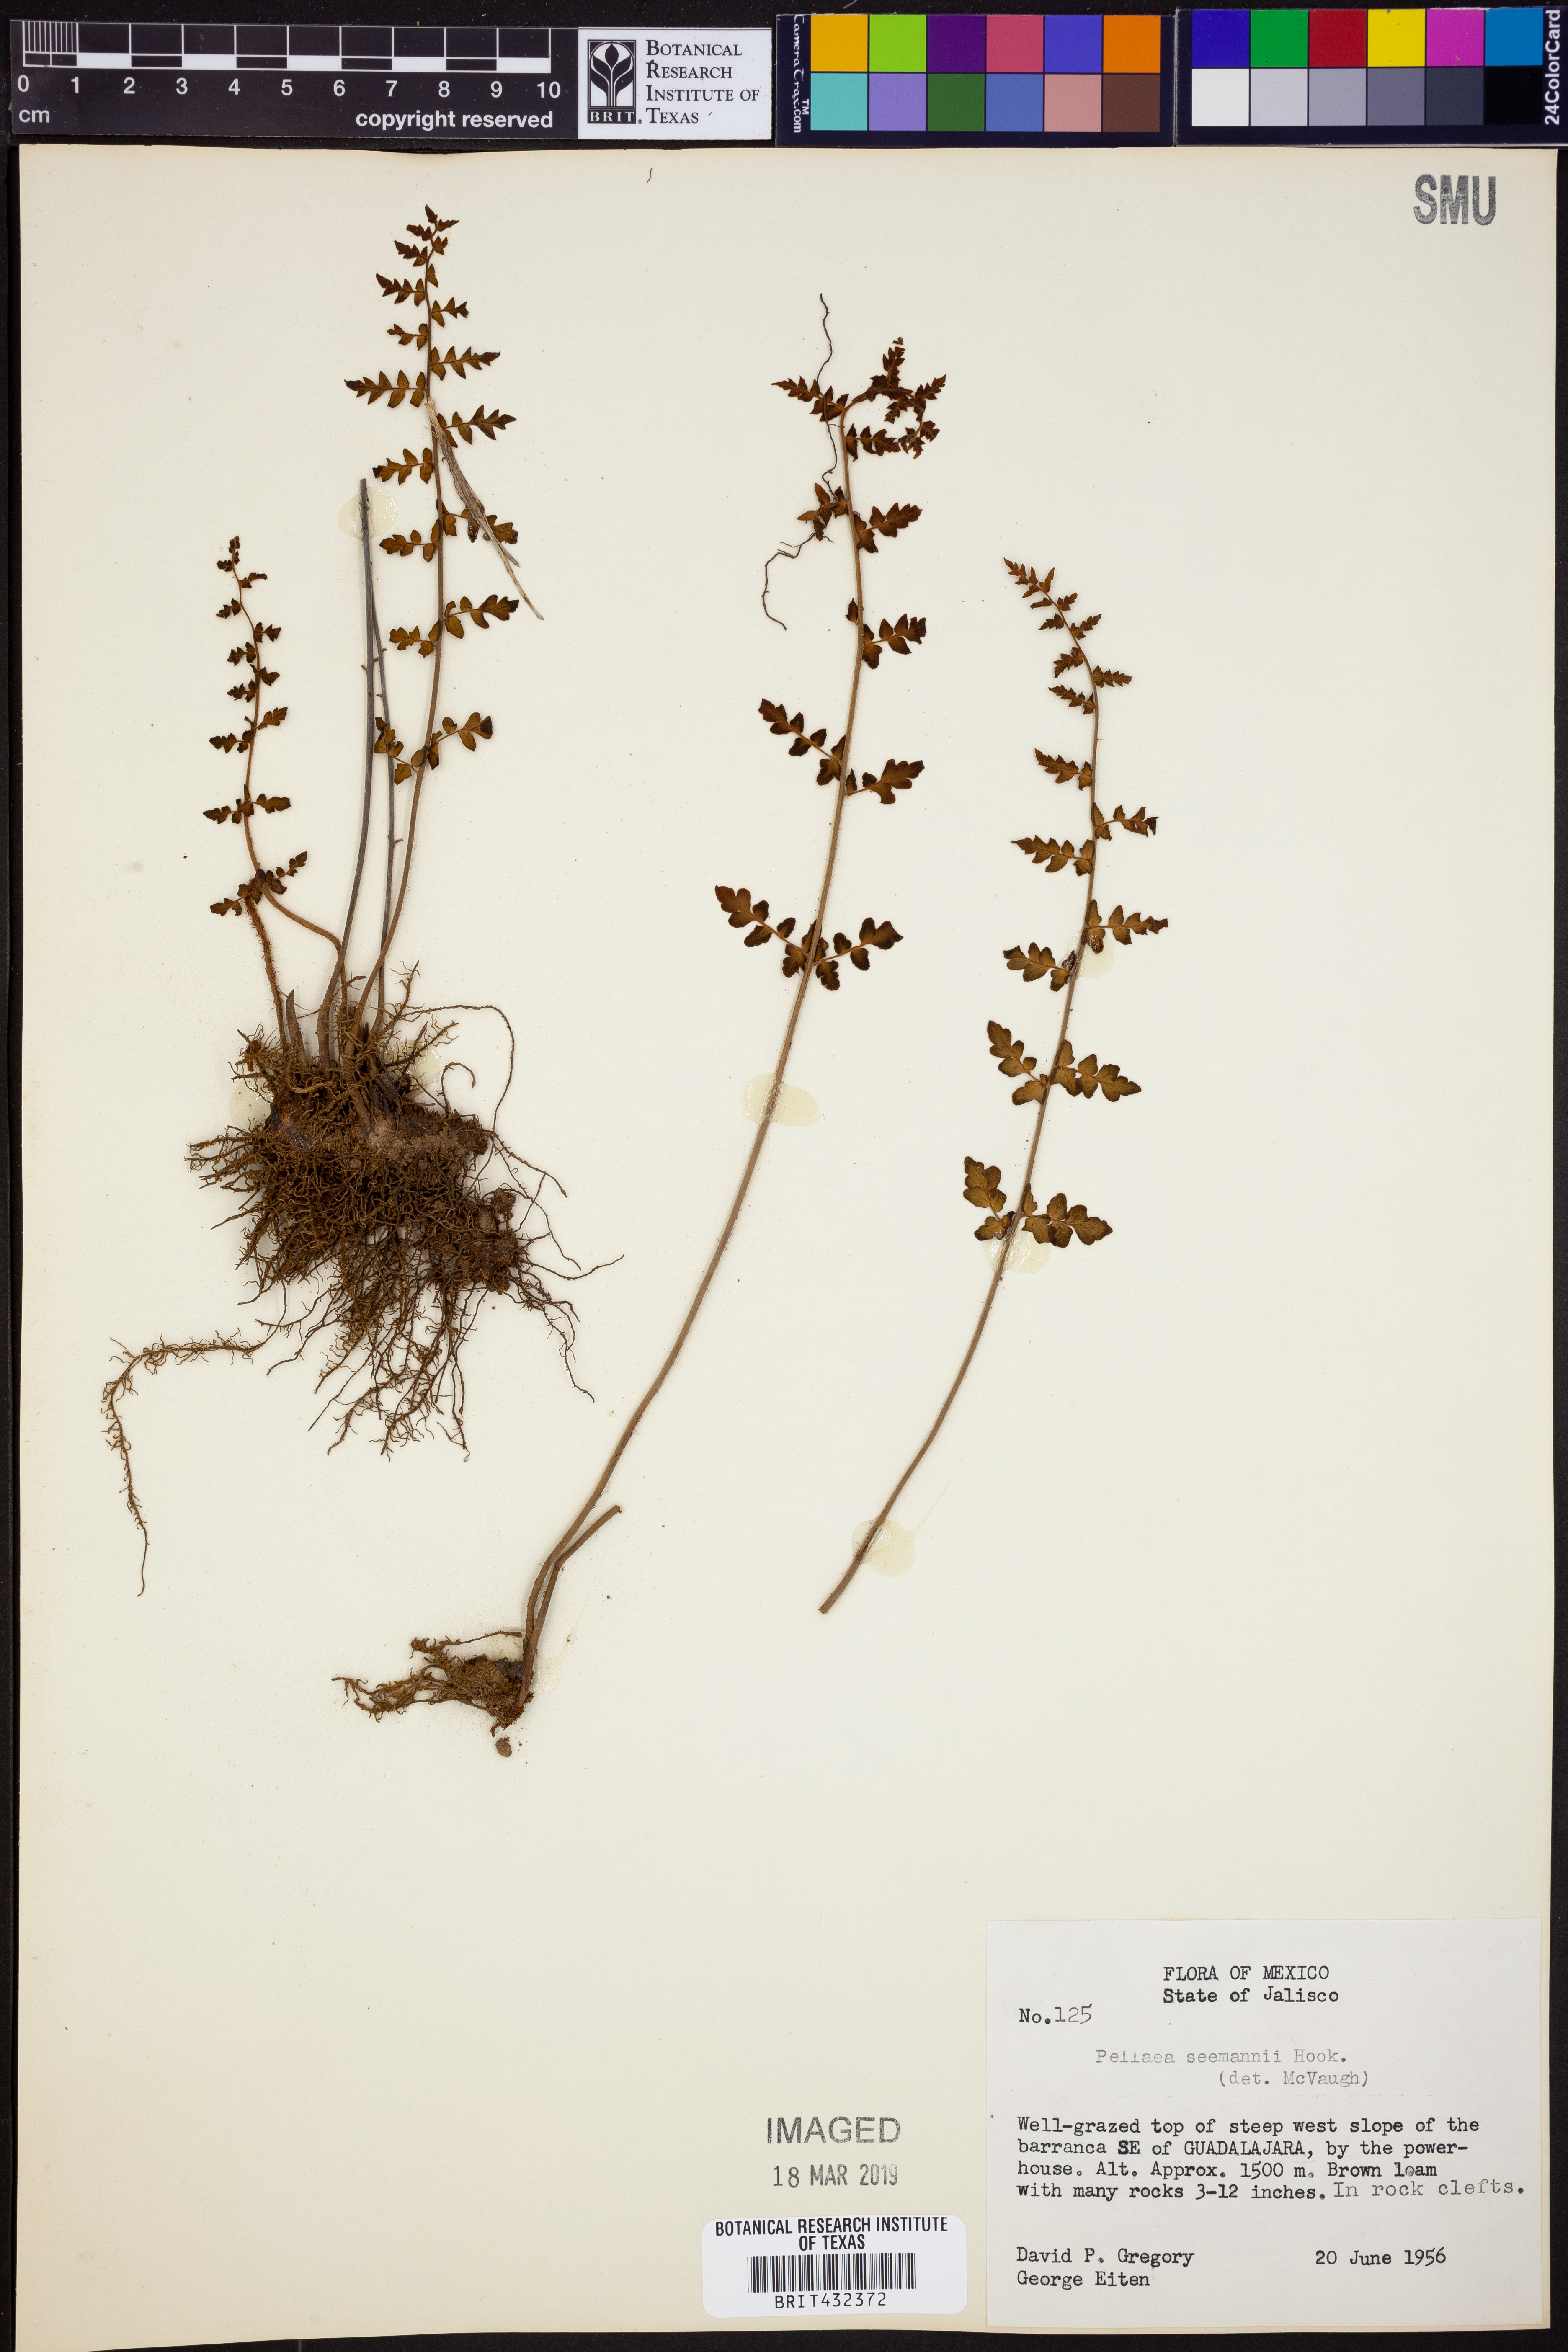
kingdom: Plantae
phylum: Tracheophyta
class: Polypodiopsida
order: Polypodiales
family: Pteridaceae
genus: Cheilanthes
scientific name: Cheilanthes lozanoi
